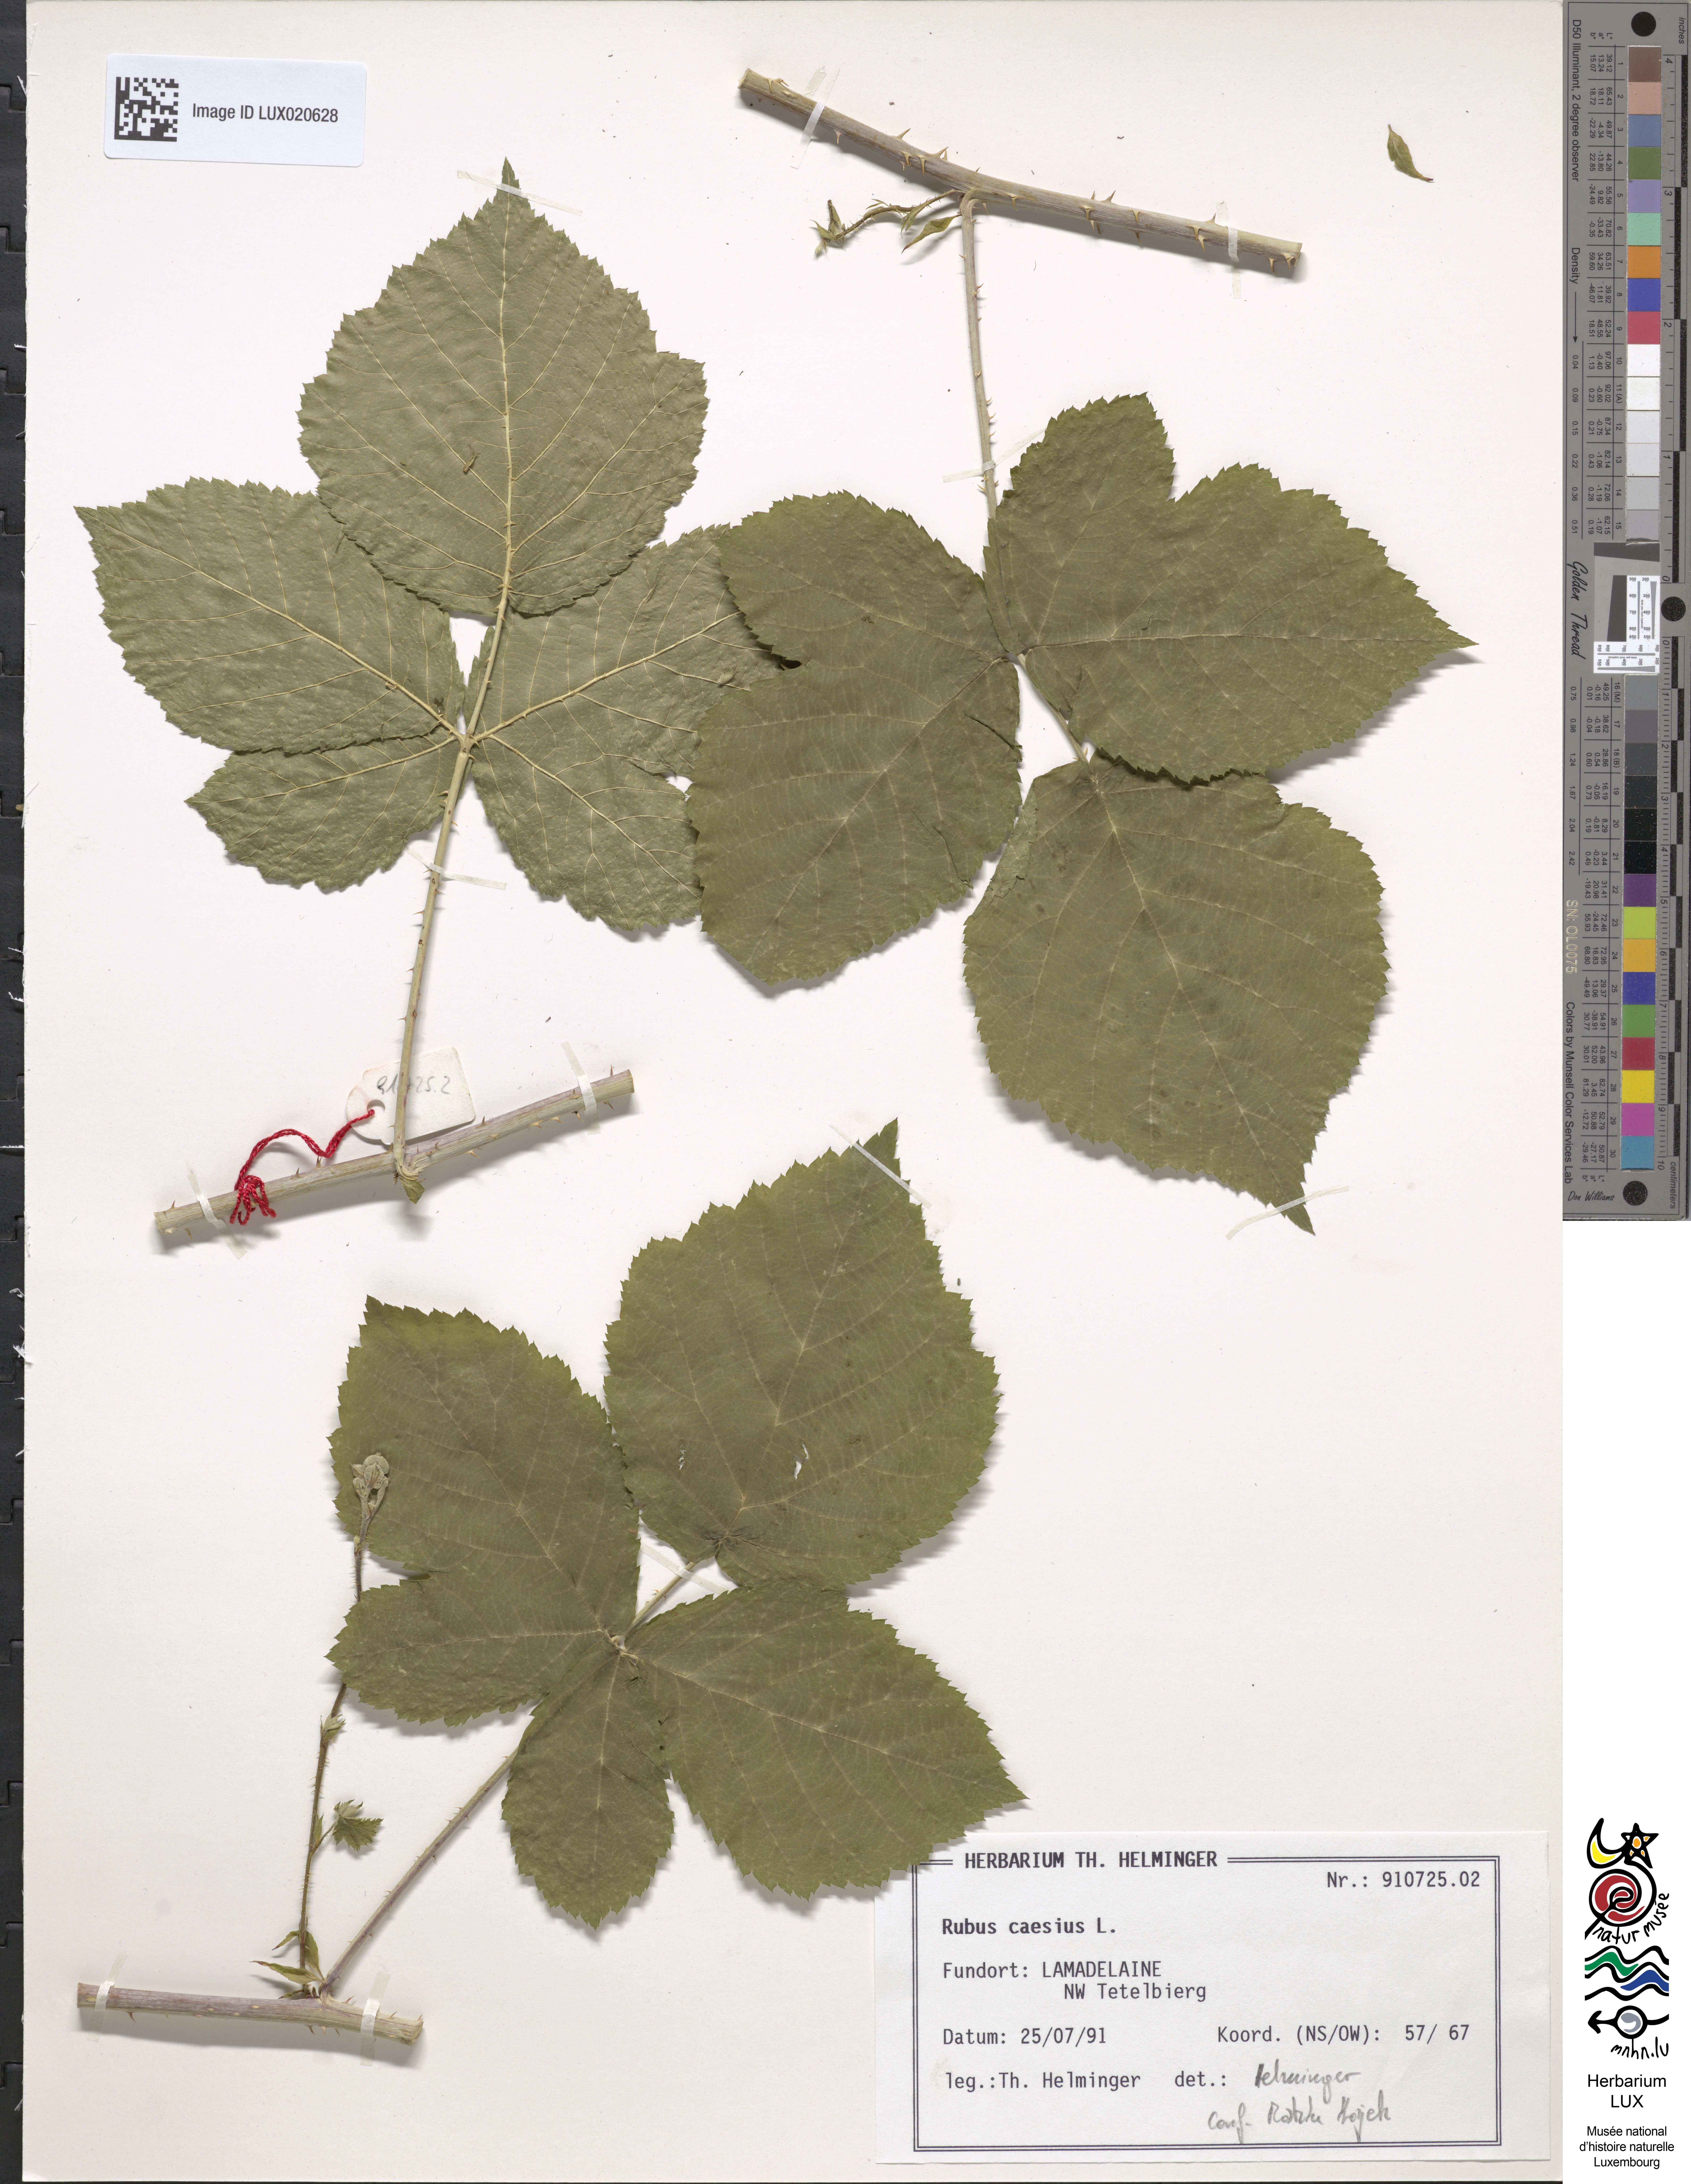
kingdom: Plantae
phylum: Tracheophyta
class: Magnoliopsida
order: Rosales
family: Rosaceae
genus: Rubus
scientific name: Rubus caesius
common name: Dewberry
